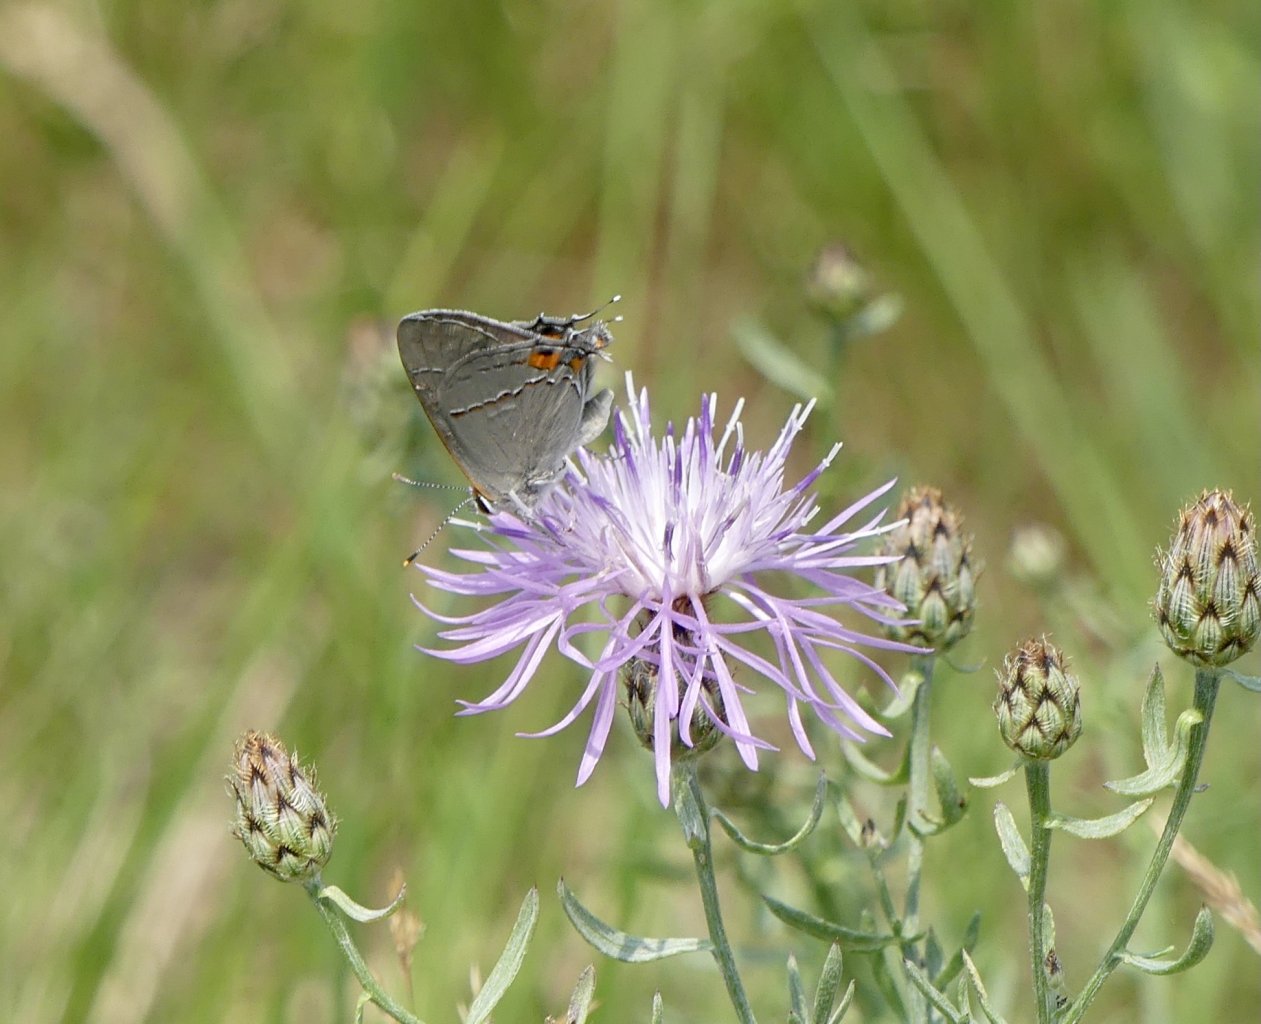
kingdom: Animalia
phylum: Arthropoda
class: Insecta
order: Lepidoptera
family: Lycaenidae
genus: Strymon
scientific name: Strymon melinus
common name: Gray Hairstreak
